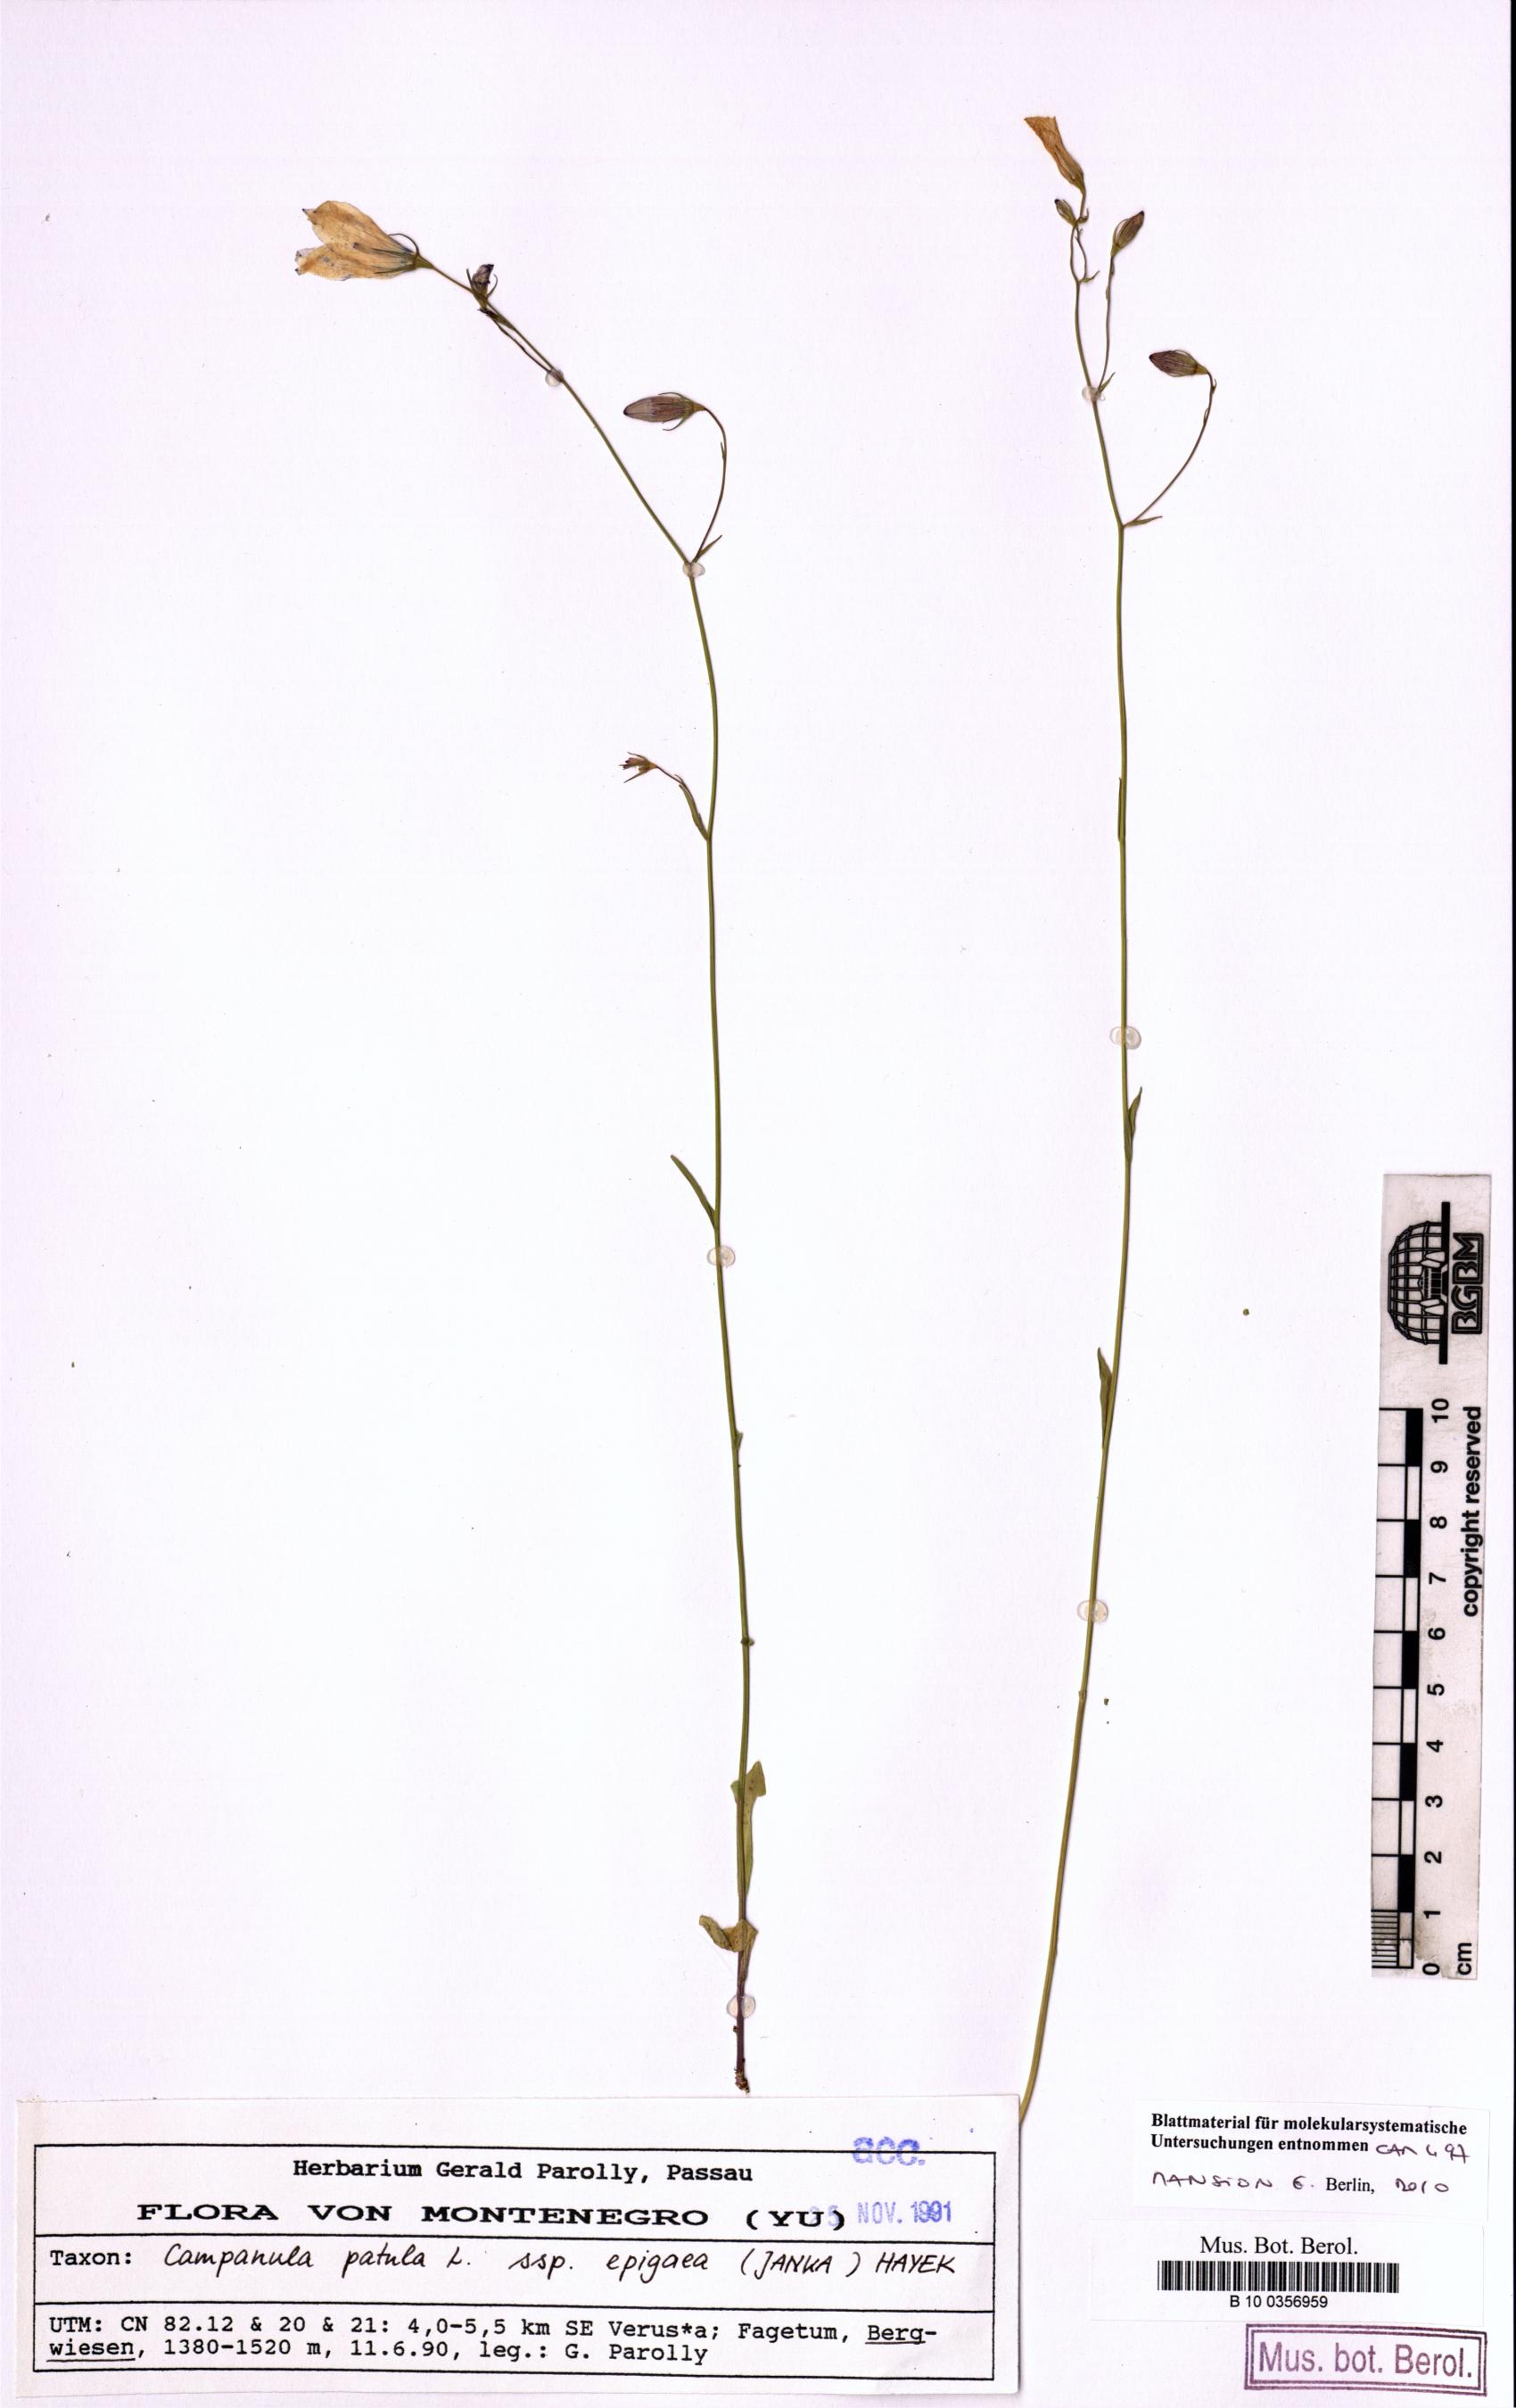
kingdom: Plantae
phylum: Tracheophyta
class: Magnoliopsida
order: Asterales
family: Campanulaceae
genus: Campanula
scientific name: Campanula patula
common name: Spreading bellflower
